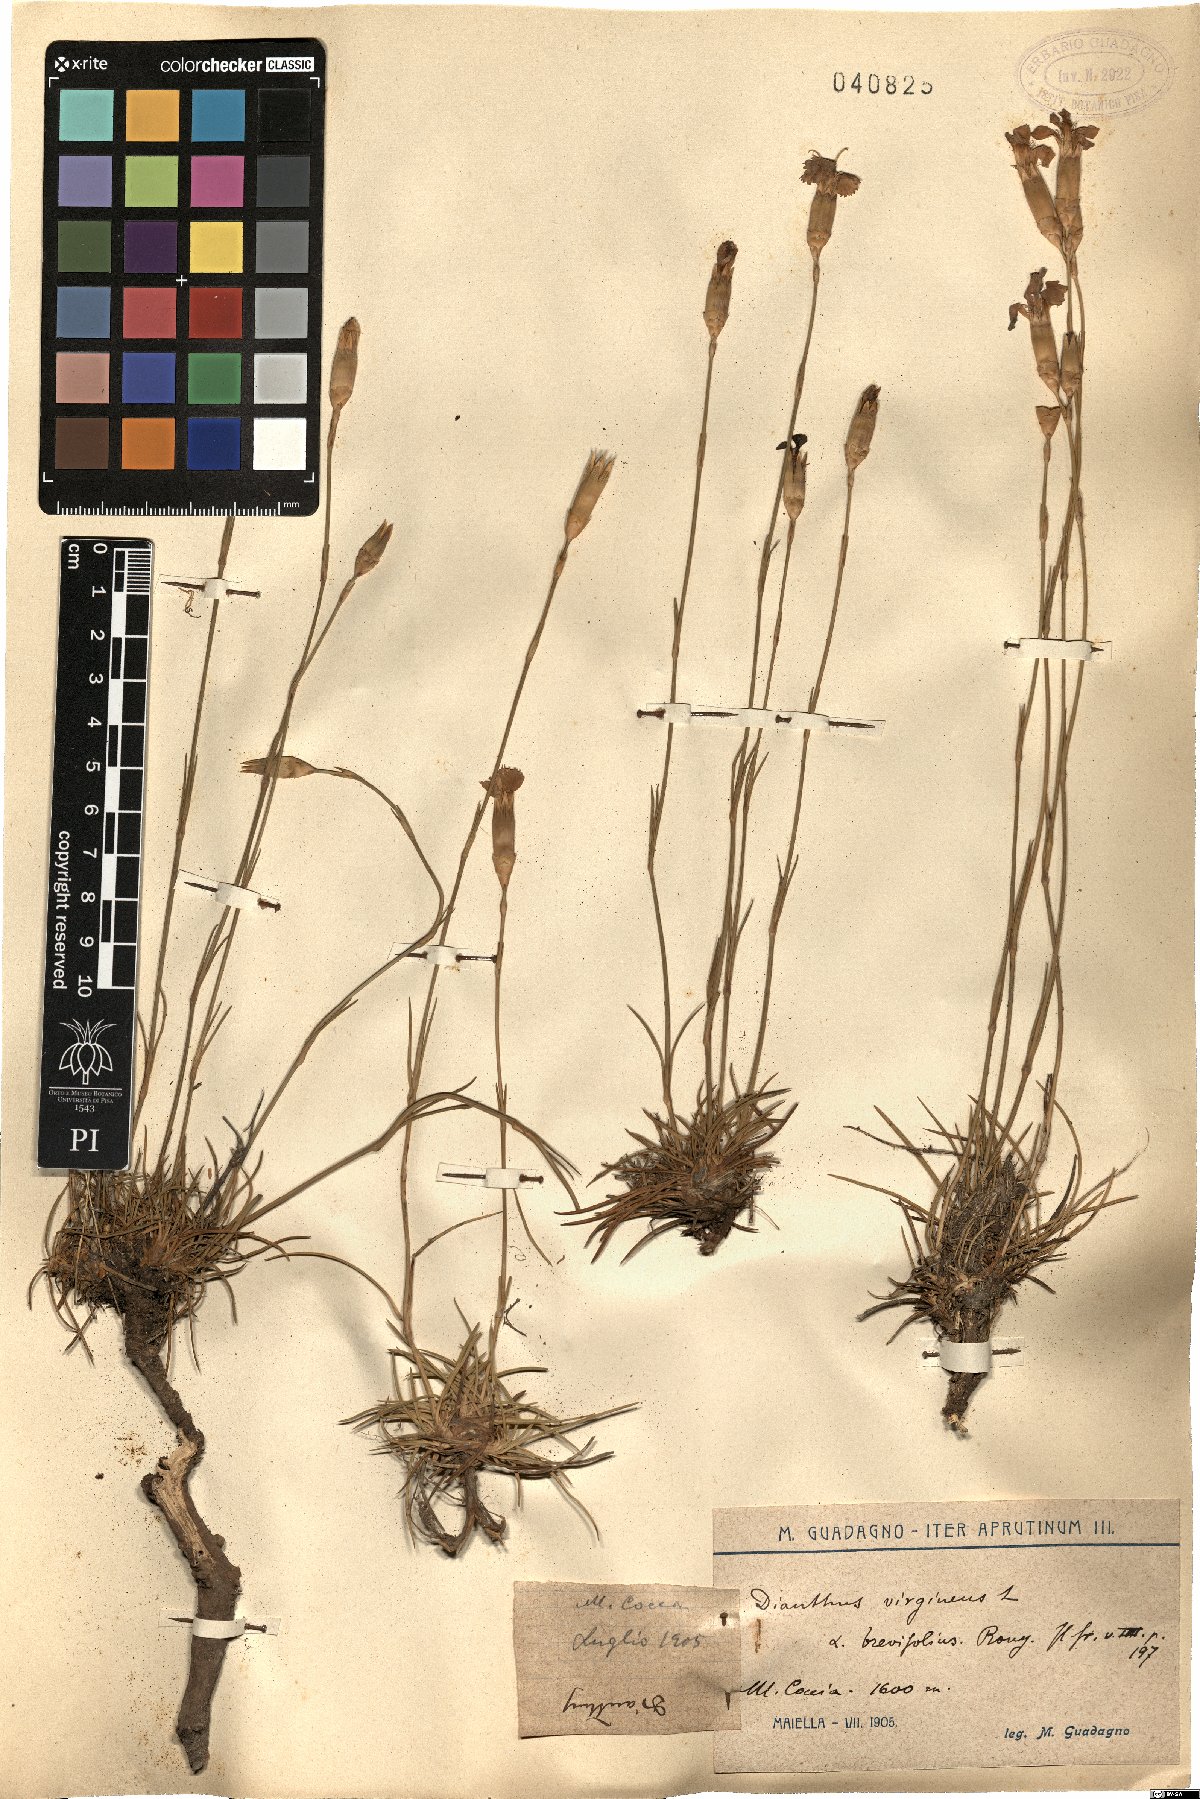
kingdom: Plantae
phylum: Tracheophyta
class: Magnoliopsida
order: Caryophyllales
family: Caryophyllaceae
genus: Dianthus
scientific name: Dianthus virgineus
